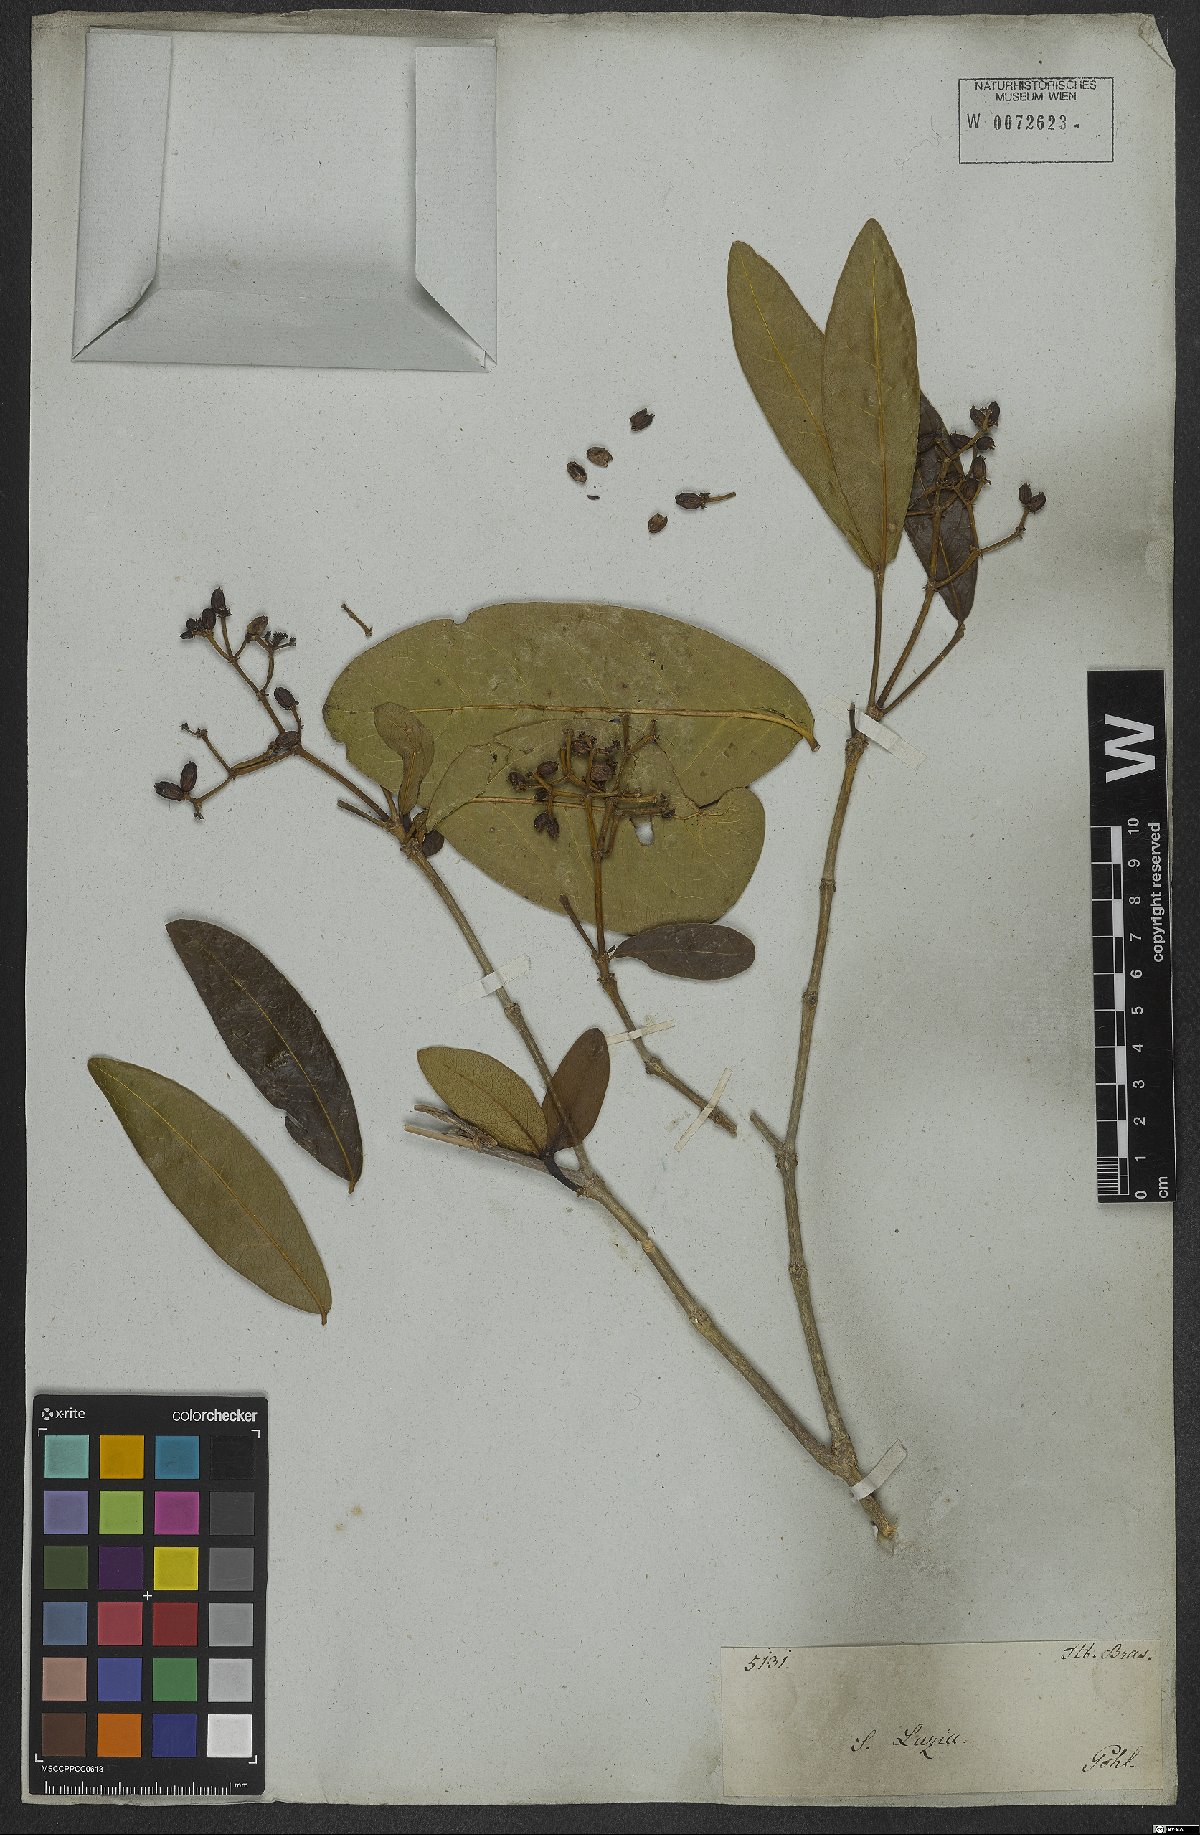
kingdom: Plantae
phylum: Tracheophyta
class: Magnoliopsida
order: Gentianales
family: Rubiaceae
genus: Rudgea
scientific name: Rudgea erioloba
